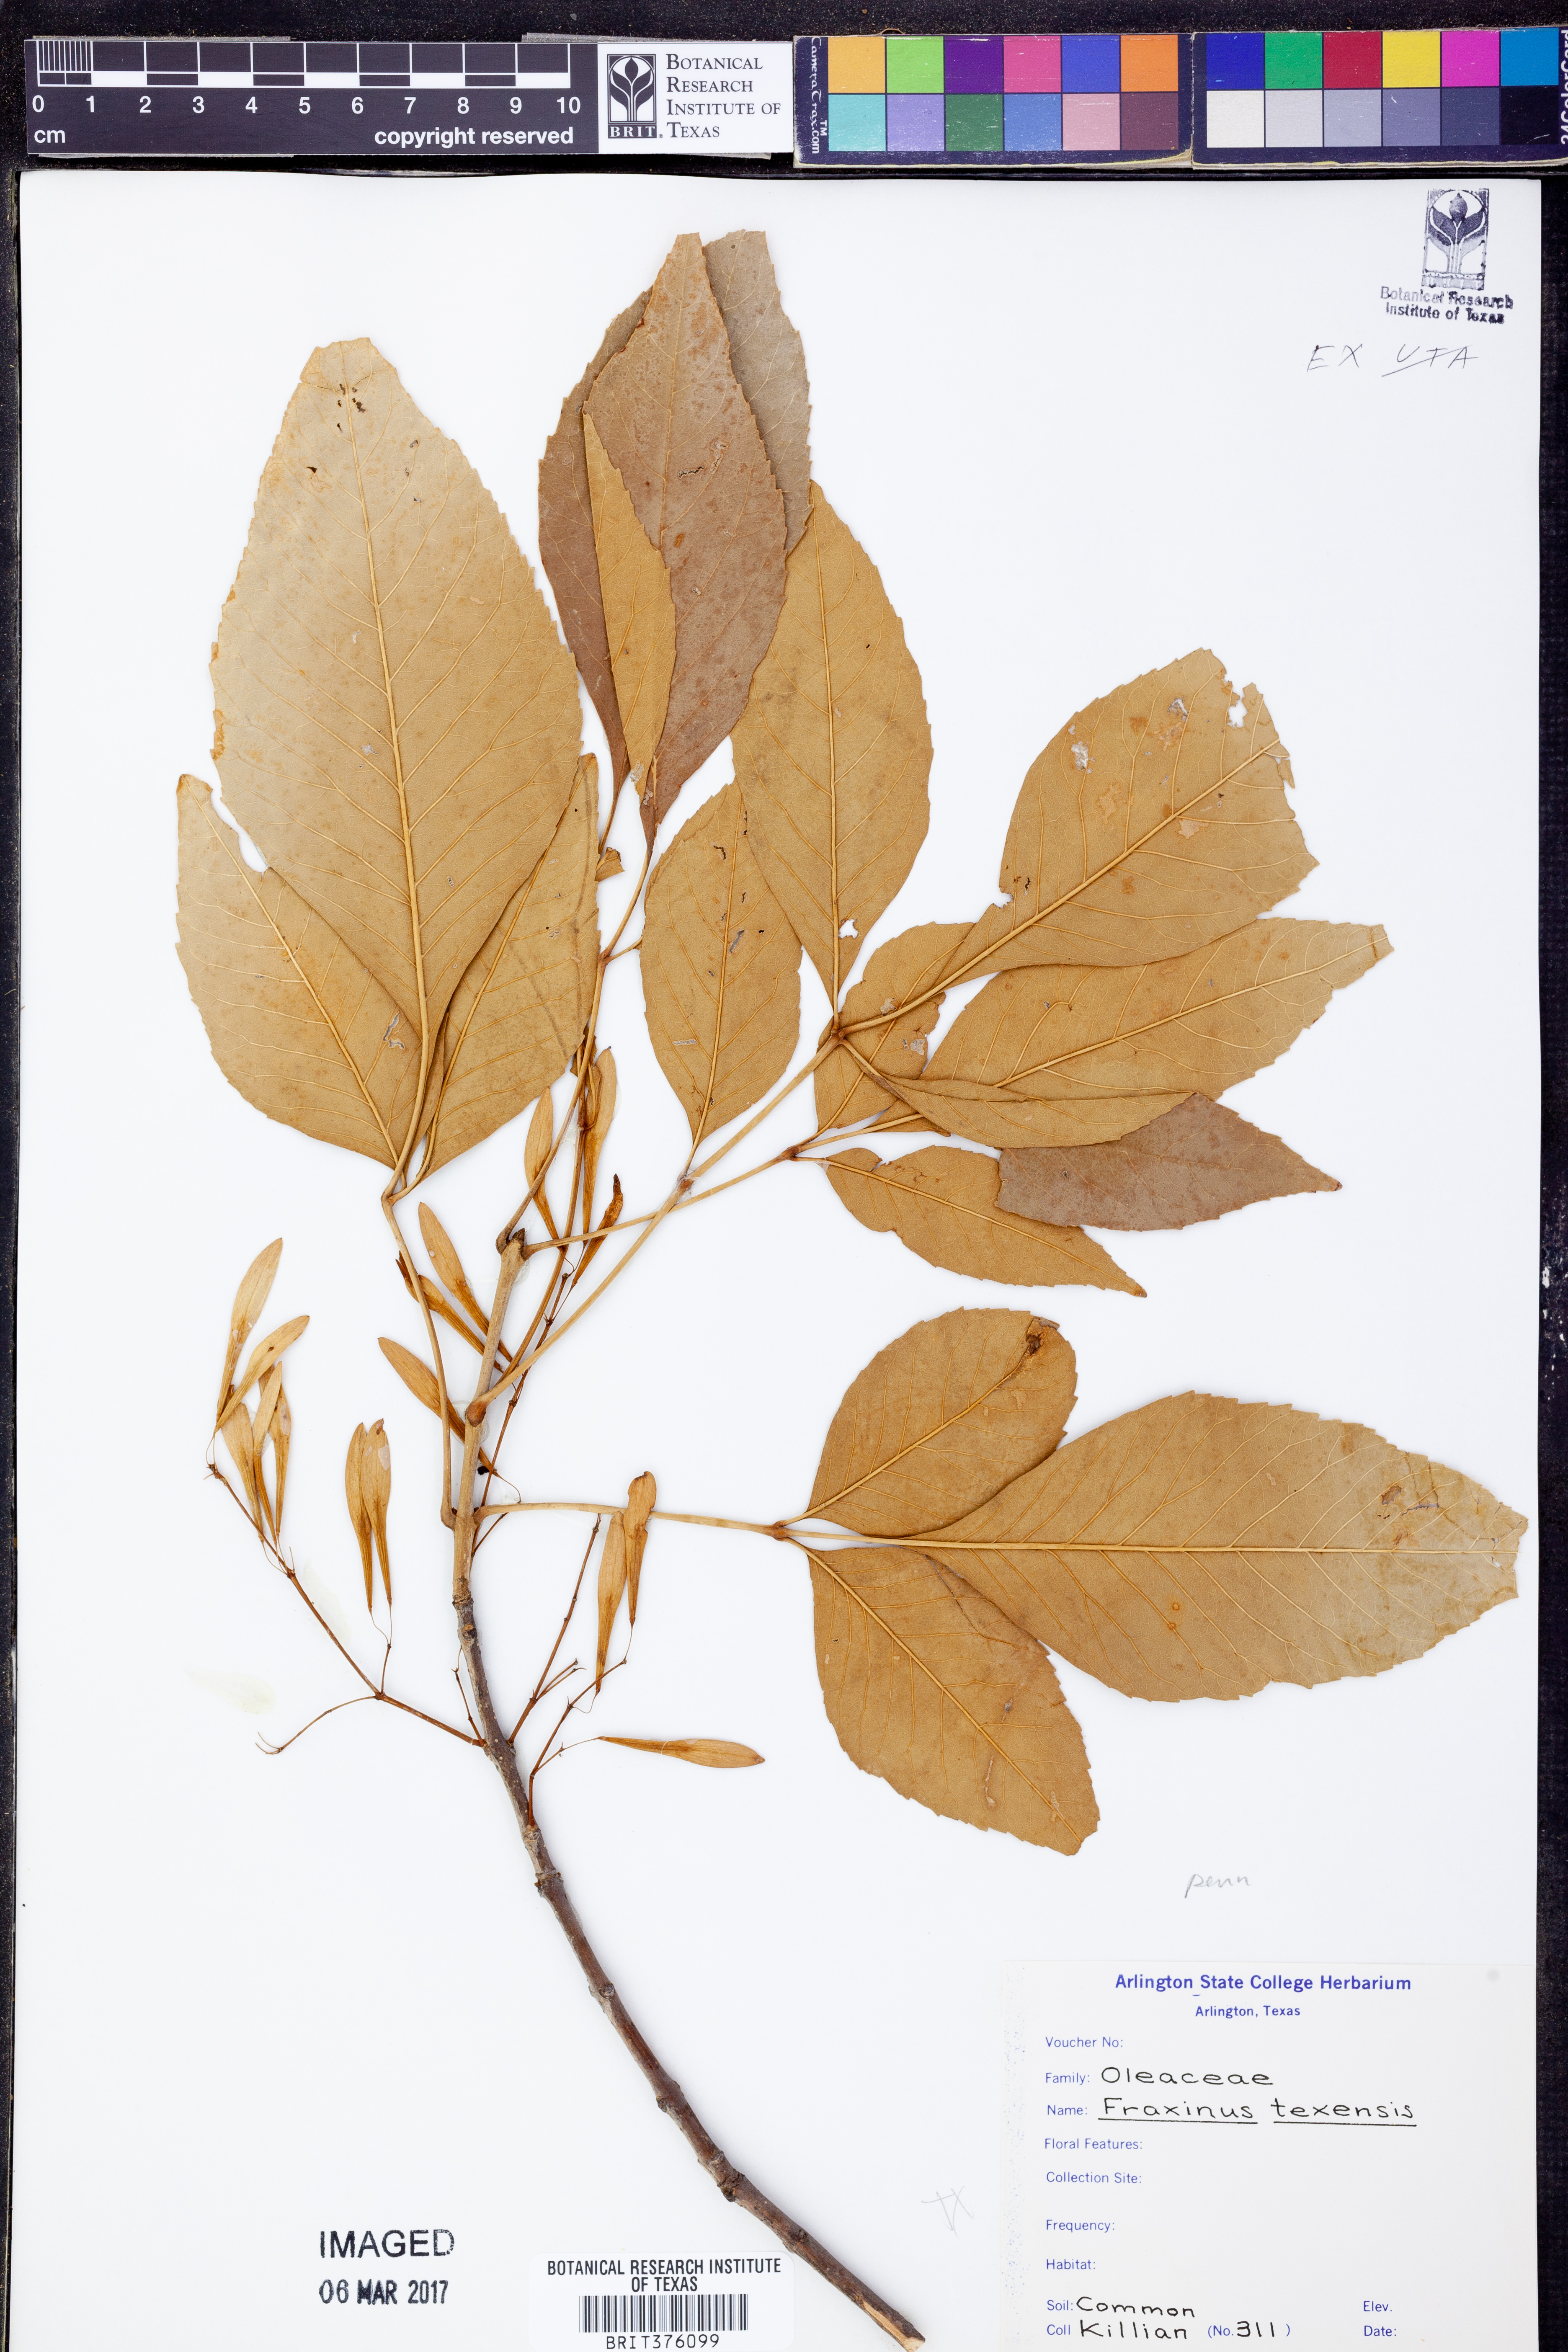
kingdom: Plantae
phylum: Tracheophyta
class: Magnoliopsida
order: Lamiales
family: Oleaceae
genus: Fraxinus
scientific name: Fraxinus albicans
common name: Texas ash
